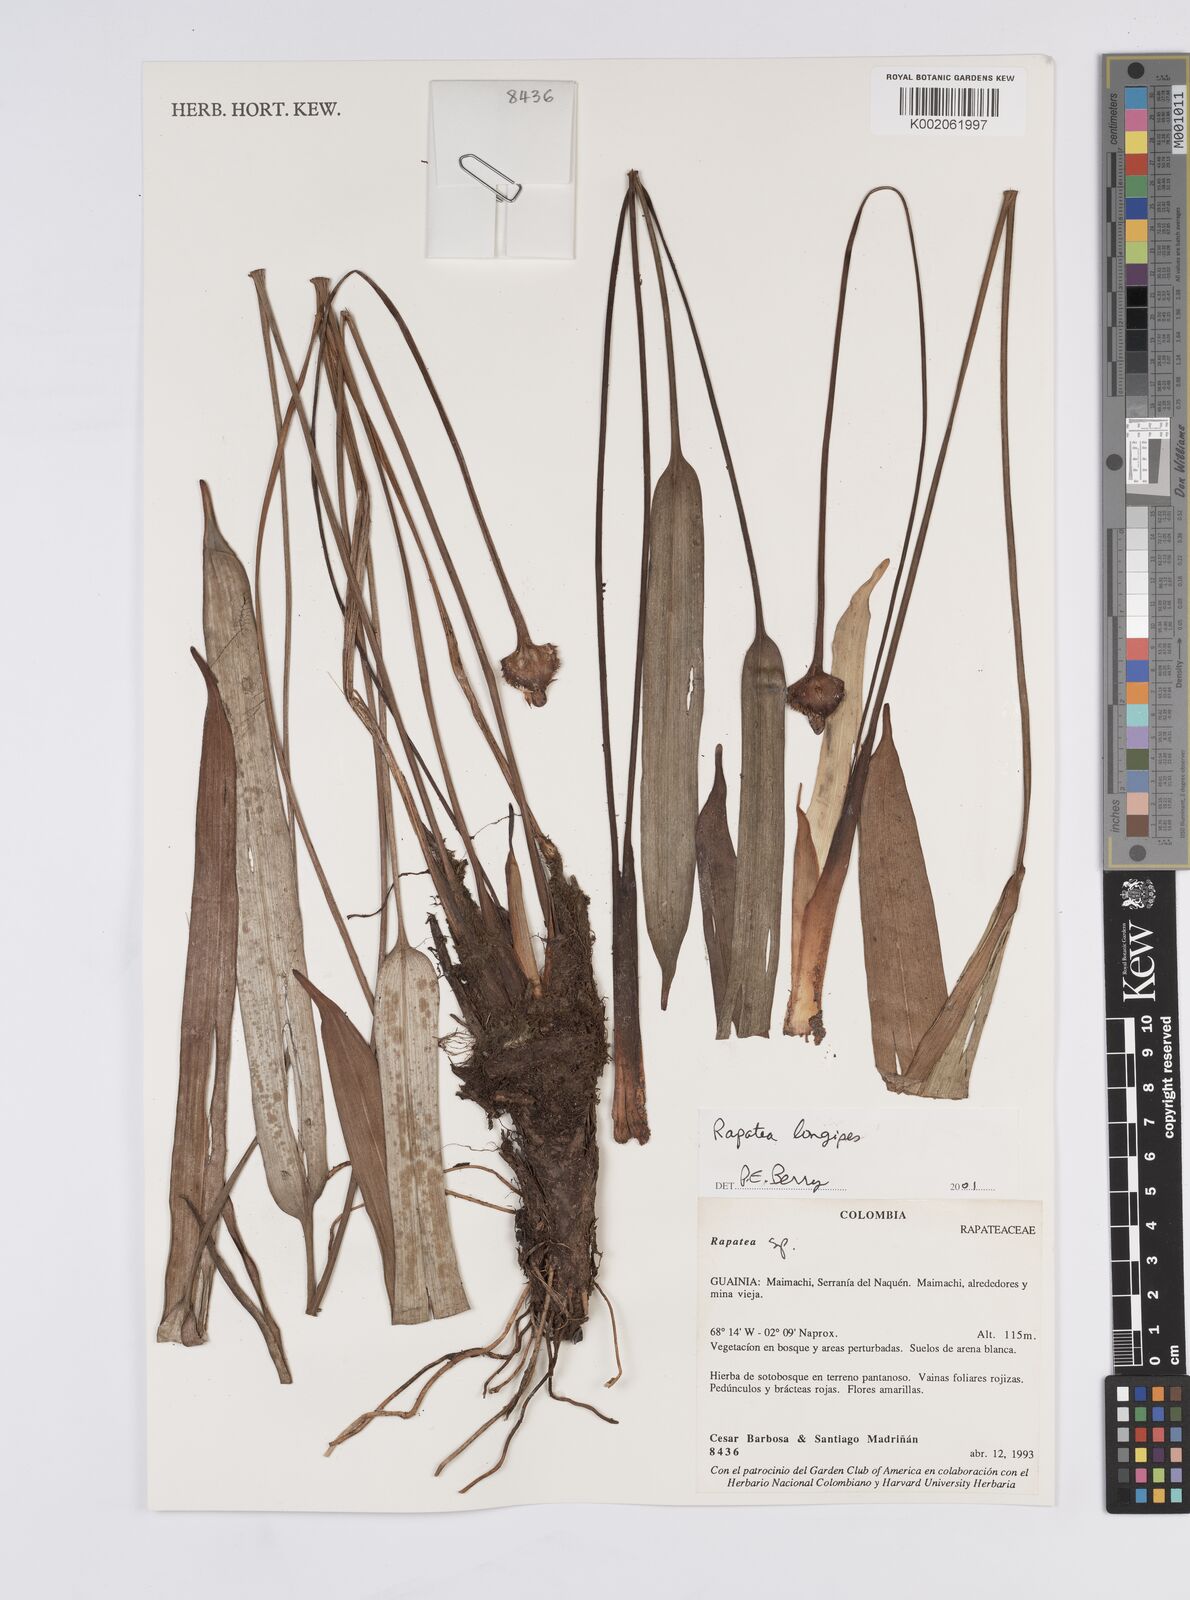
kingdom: Plantae
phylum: Tracheophyta
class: Liliopsida
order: Poales
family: Rapateaceae
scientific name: Rapateaceae
